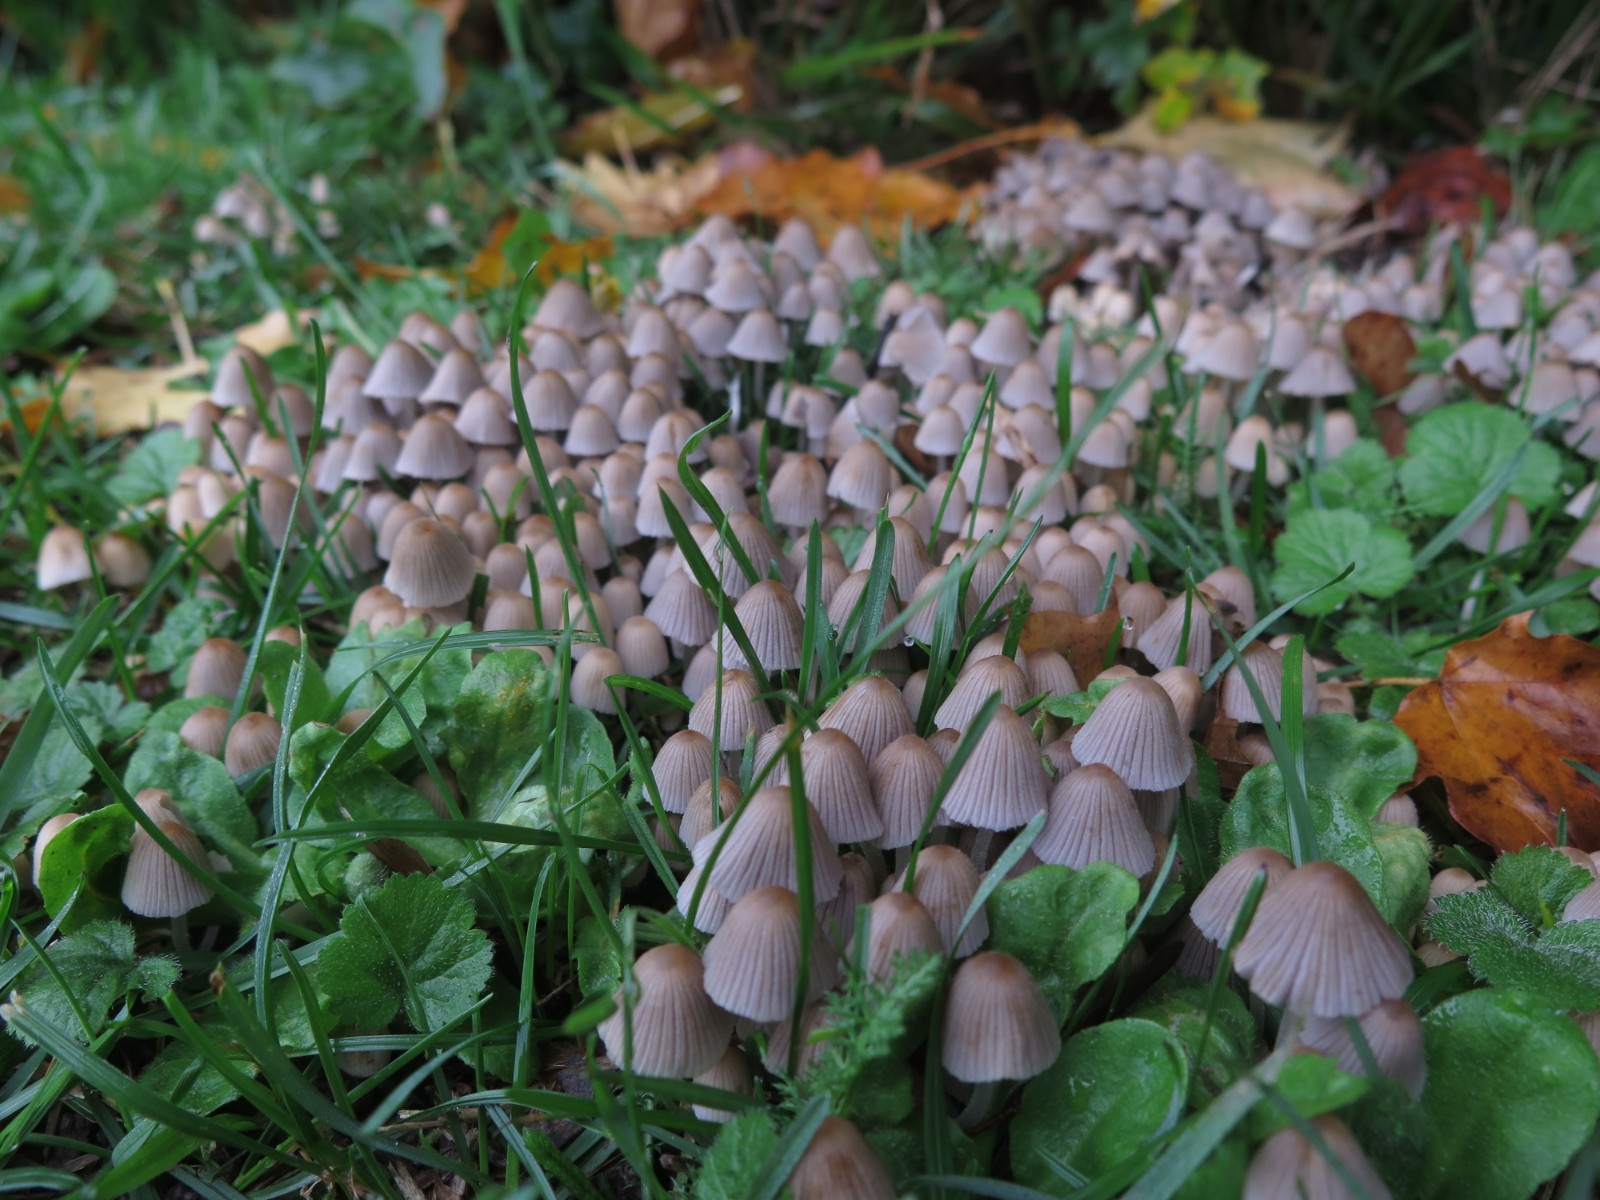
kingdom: Fungi
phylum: Basidiomycota
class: Agaricomycetes
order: Agaricales
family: Psathyrellaceae
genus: Coprinellus
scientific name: Coprinellus disseminatus
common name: bredsået blækhat
